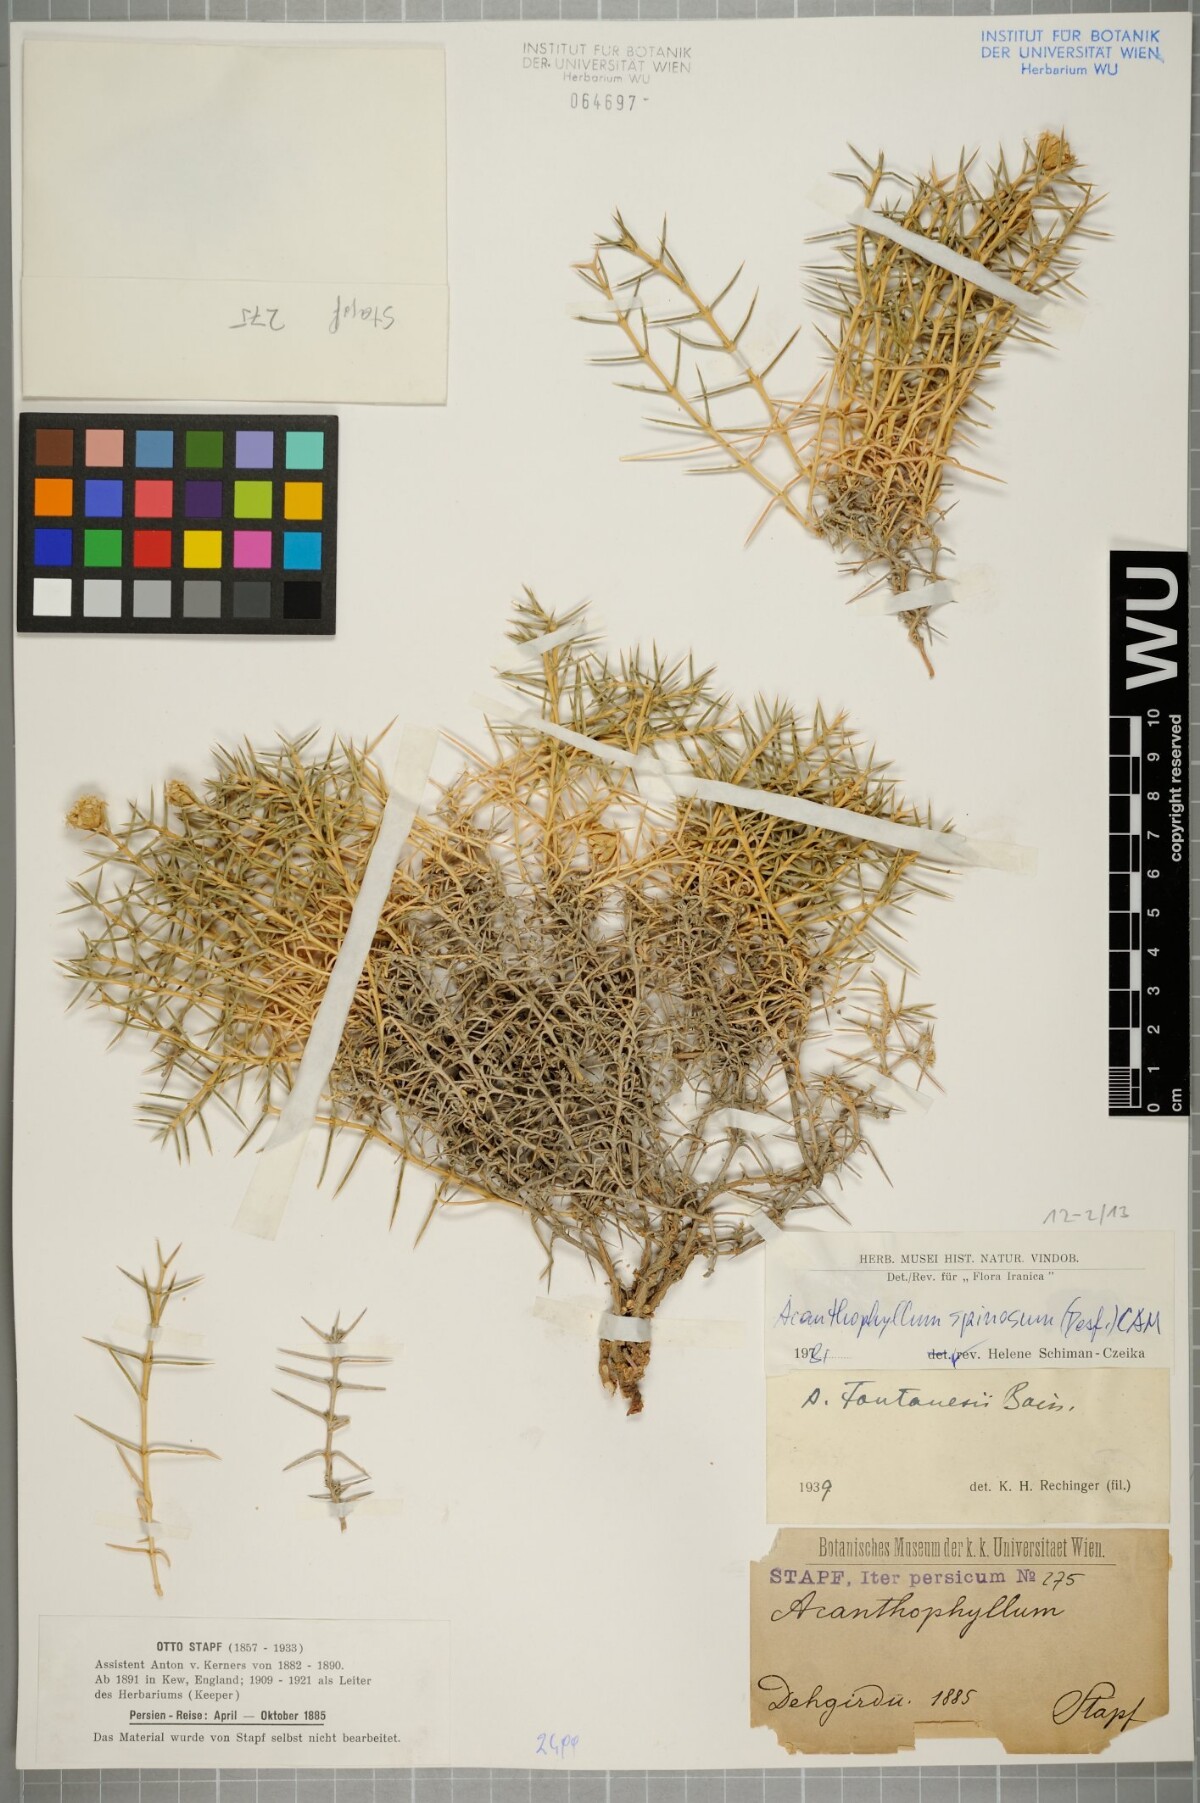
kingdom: Plantae
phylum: Tracheophyta
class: Magnoliopsida
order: Caryophyllales
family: Caryophyllaceae
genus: Acanthophyllum
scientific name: Acanthophyllum spinosum
